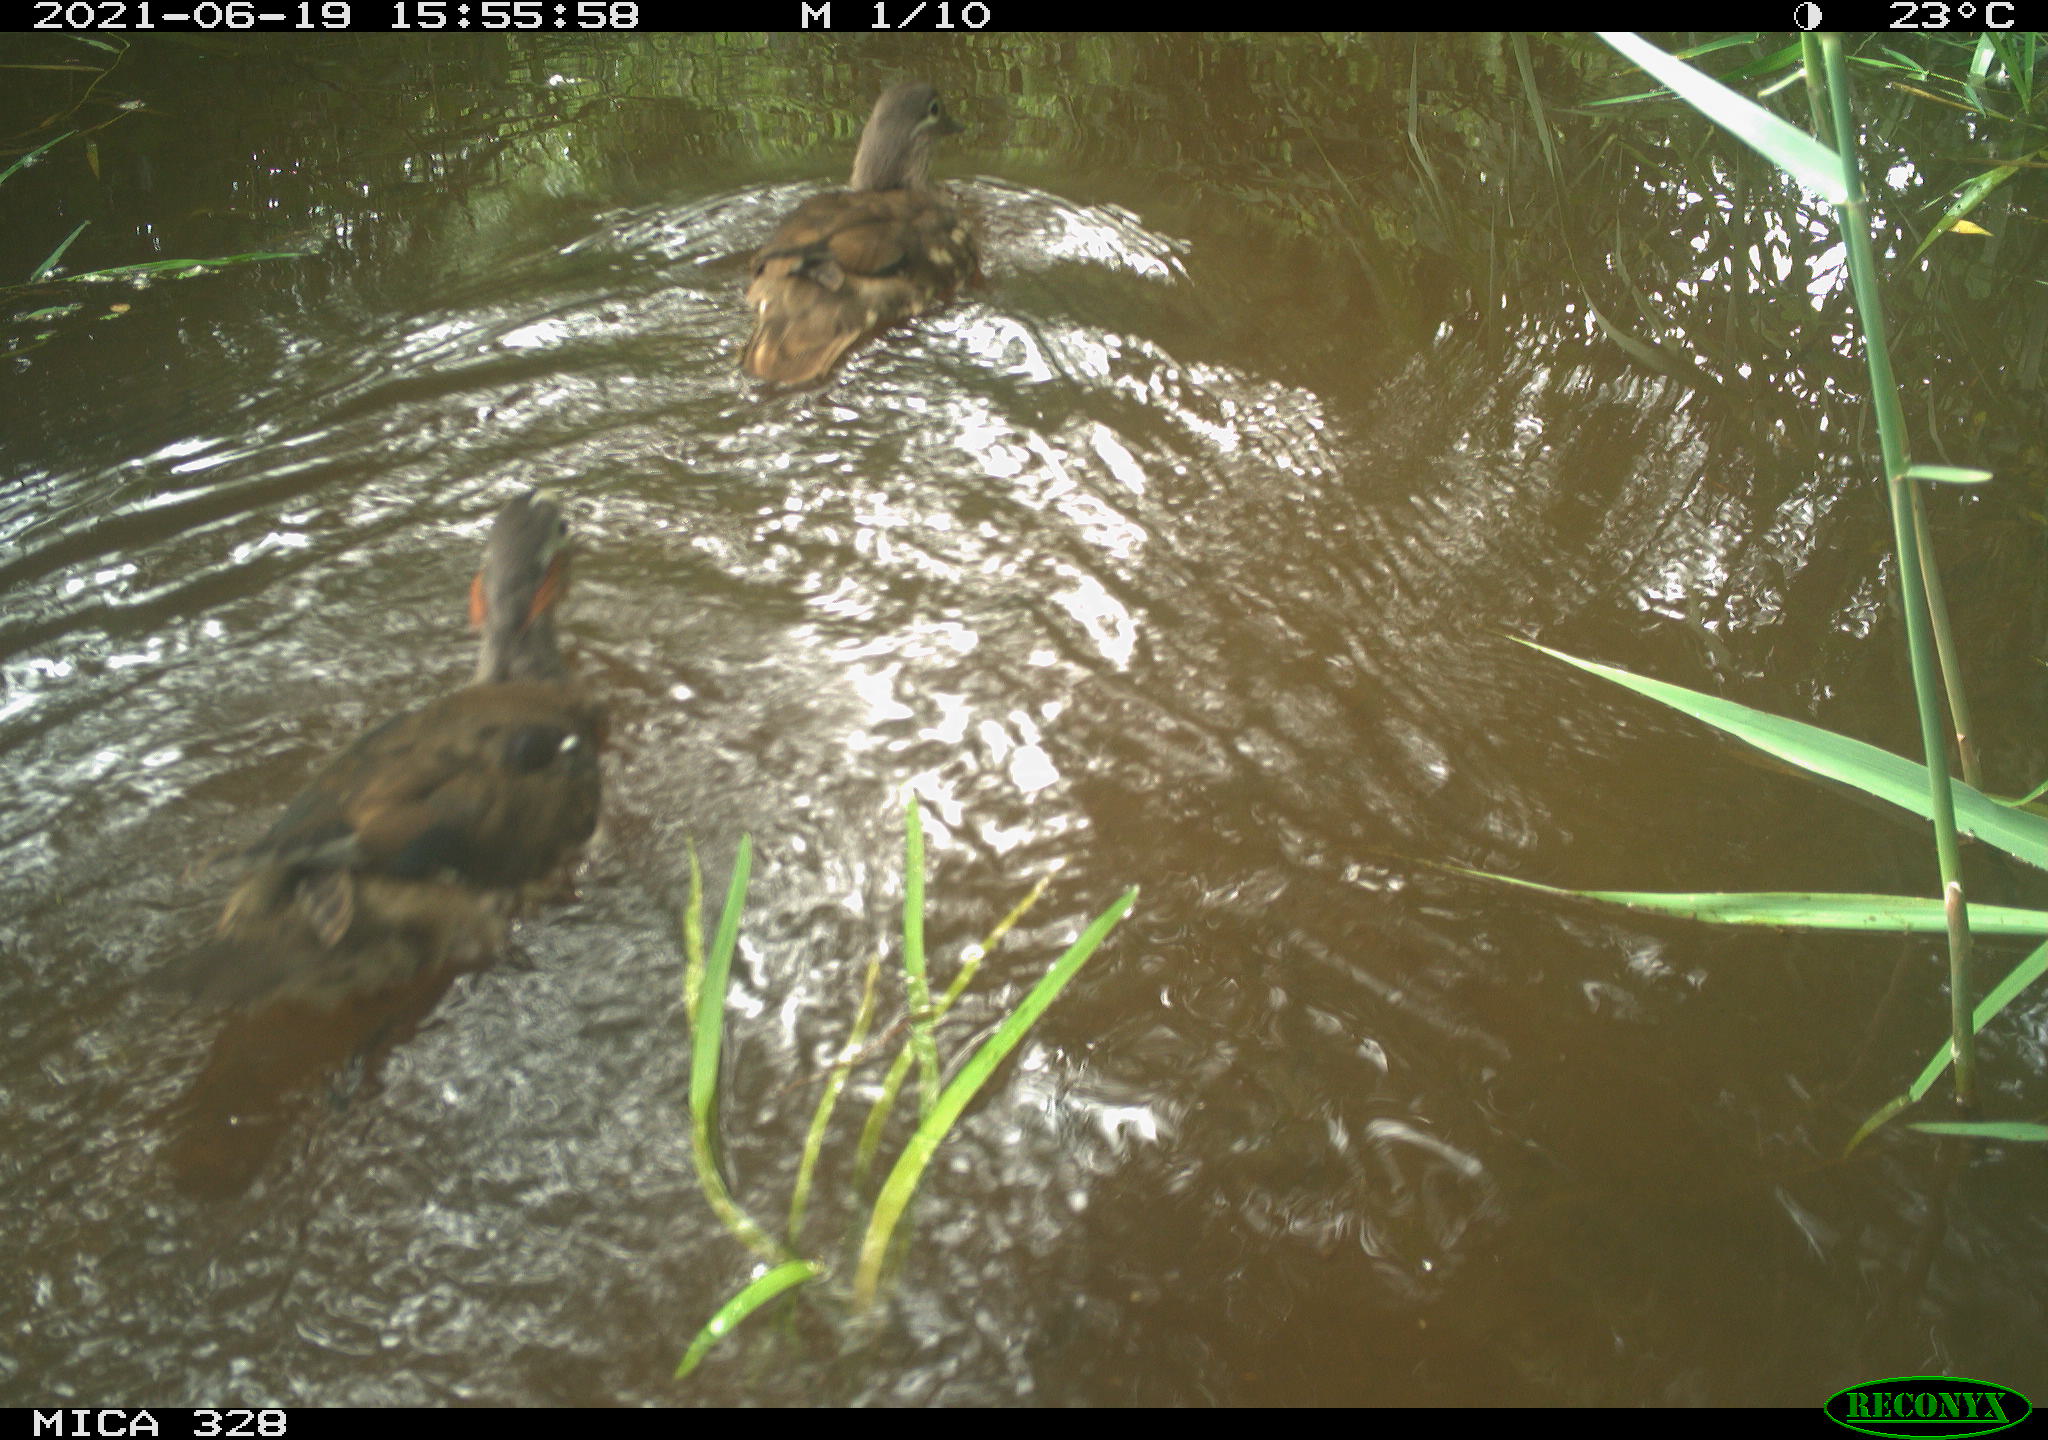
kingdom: Animalia
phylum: Chordata
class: Aves
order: Anseriformes
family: Anatidae
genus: Aix
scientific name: Aix galericulata
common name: Mandarin duck
